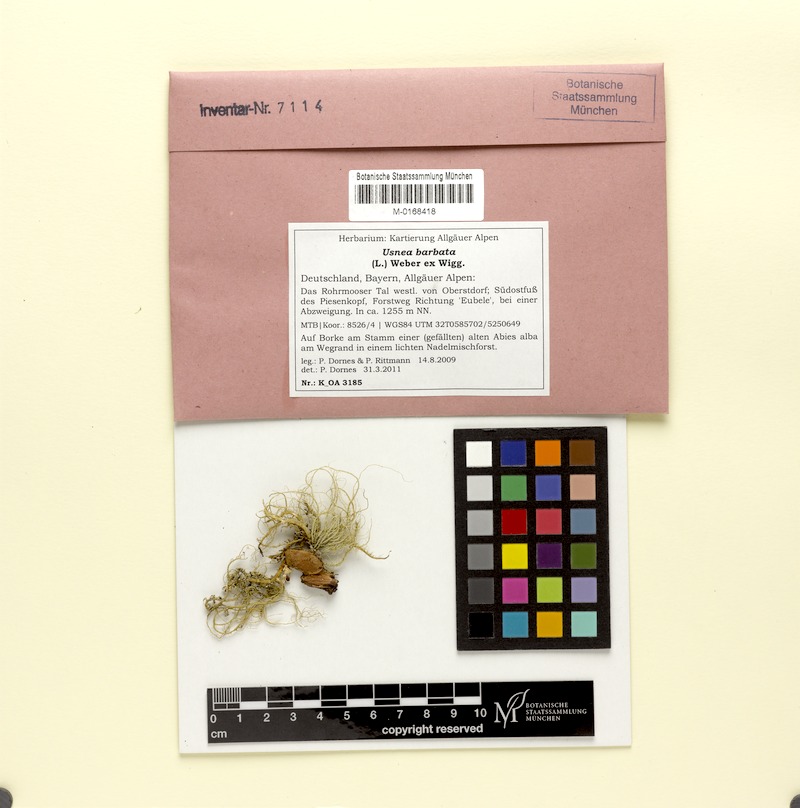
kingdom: Fungi
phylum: Ascomycota
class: Lecanoromycetes
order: Lecanorales
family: Parmeliaceae
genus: Usnea
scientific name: Usnea barbata
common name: Old man's beard lichen
